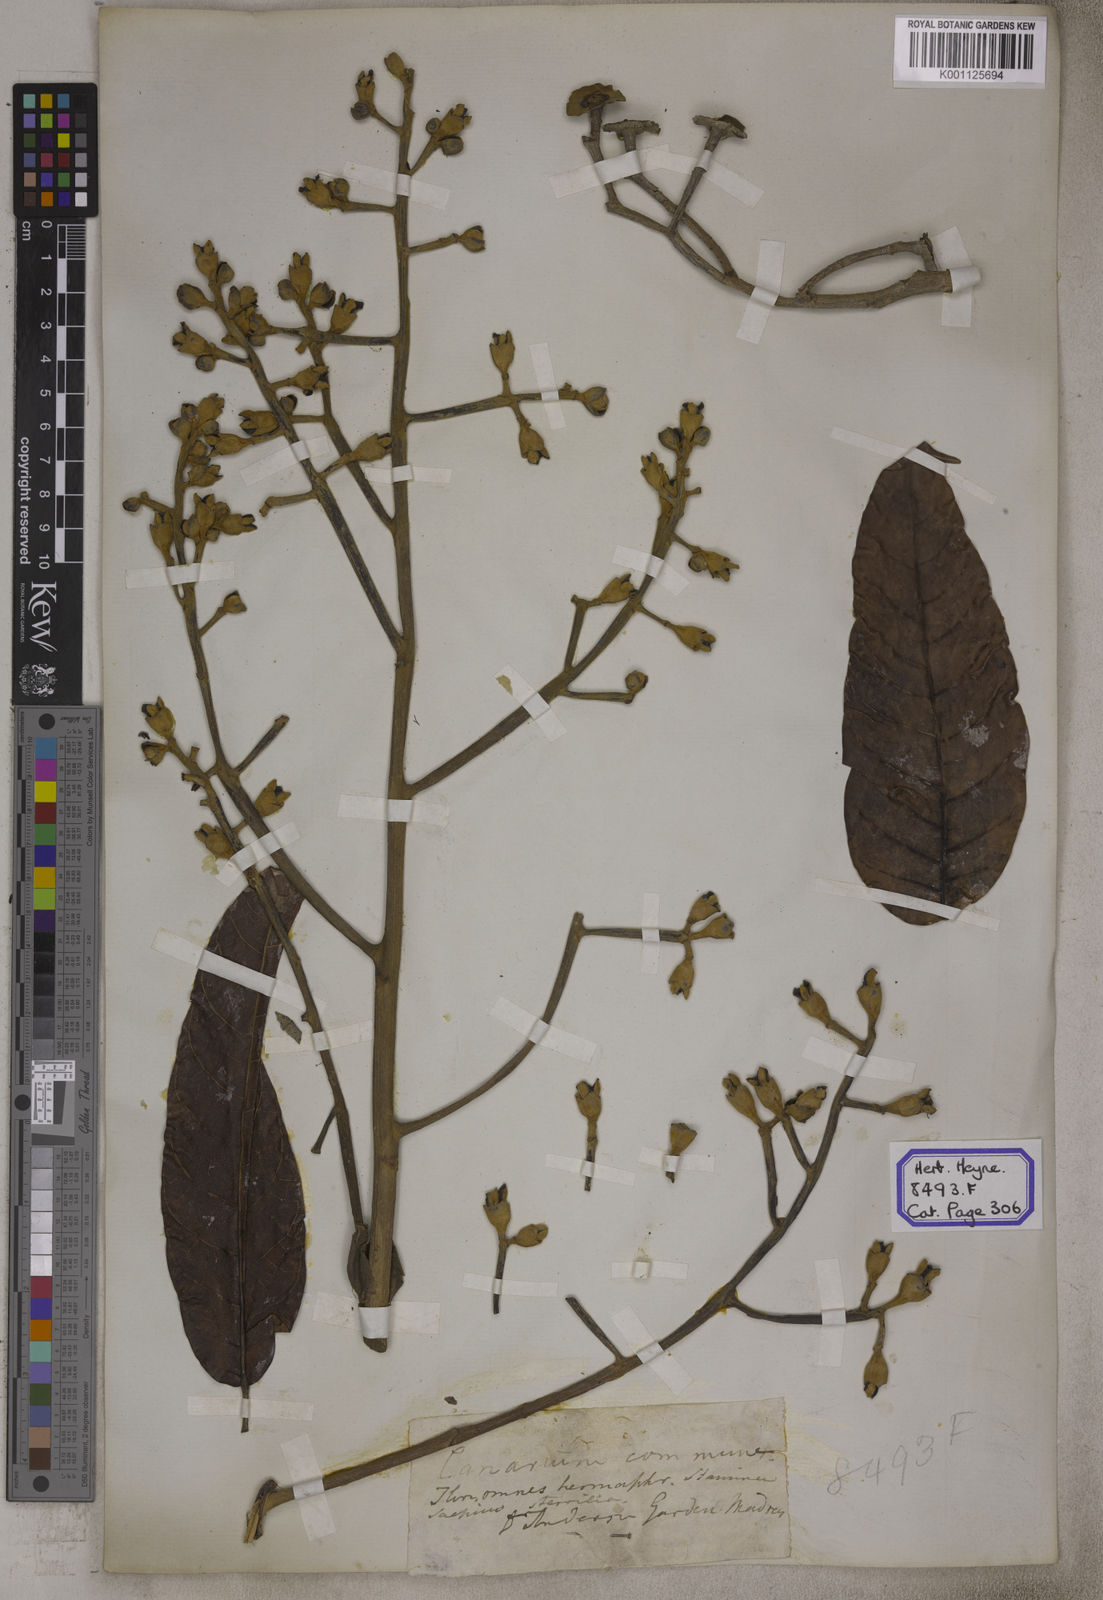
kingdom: Plantae
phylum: Tracheophyta
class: Magnoliopsida
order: Sapindales
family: Burseraceae
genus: Canarium
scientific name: Canarium indicum
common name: Canarium-nut
